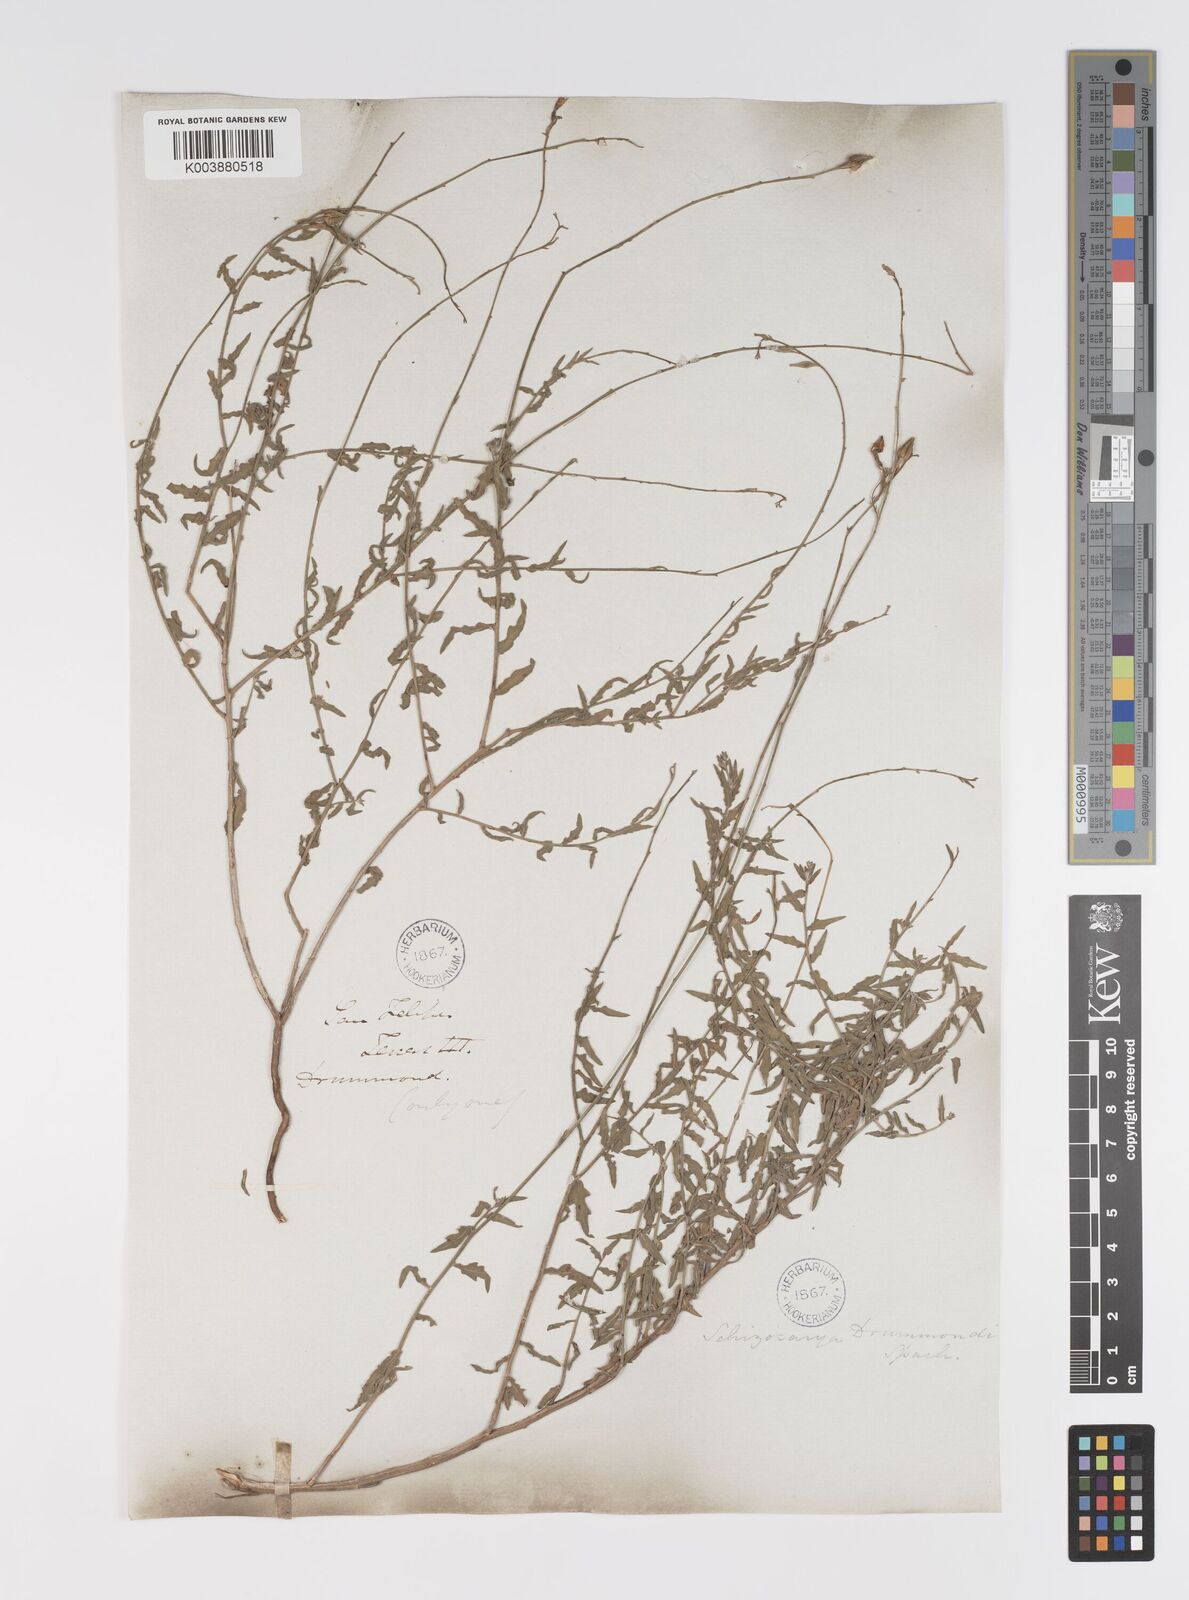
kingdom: Plantae
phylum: Tracheophyta
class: Magnoliopsida
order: Myrtales
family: Onagraceae
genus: Oenothera
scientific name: Oenothera hispida
